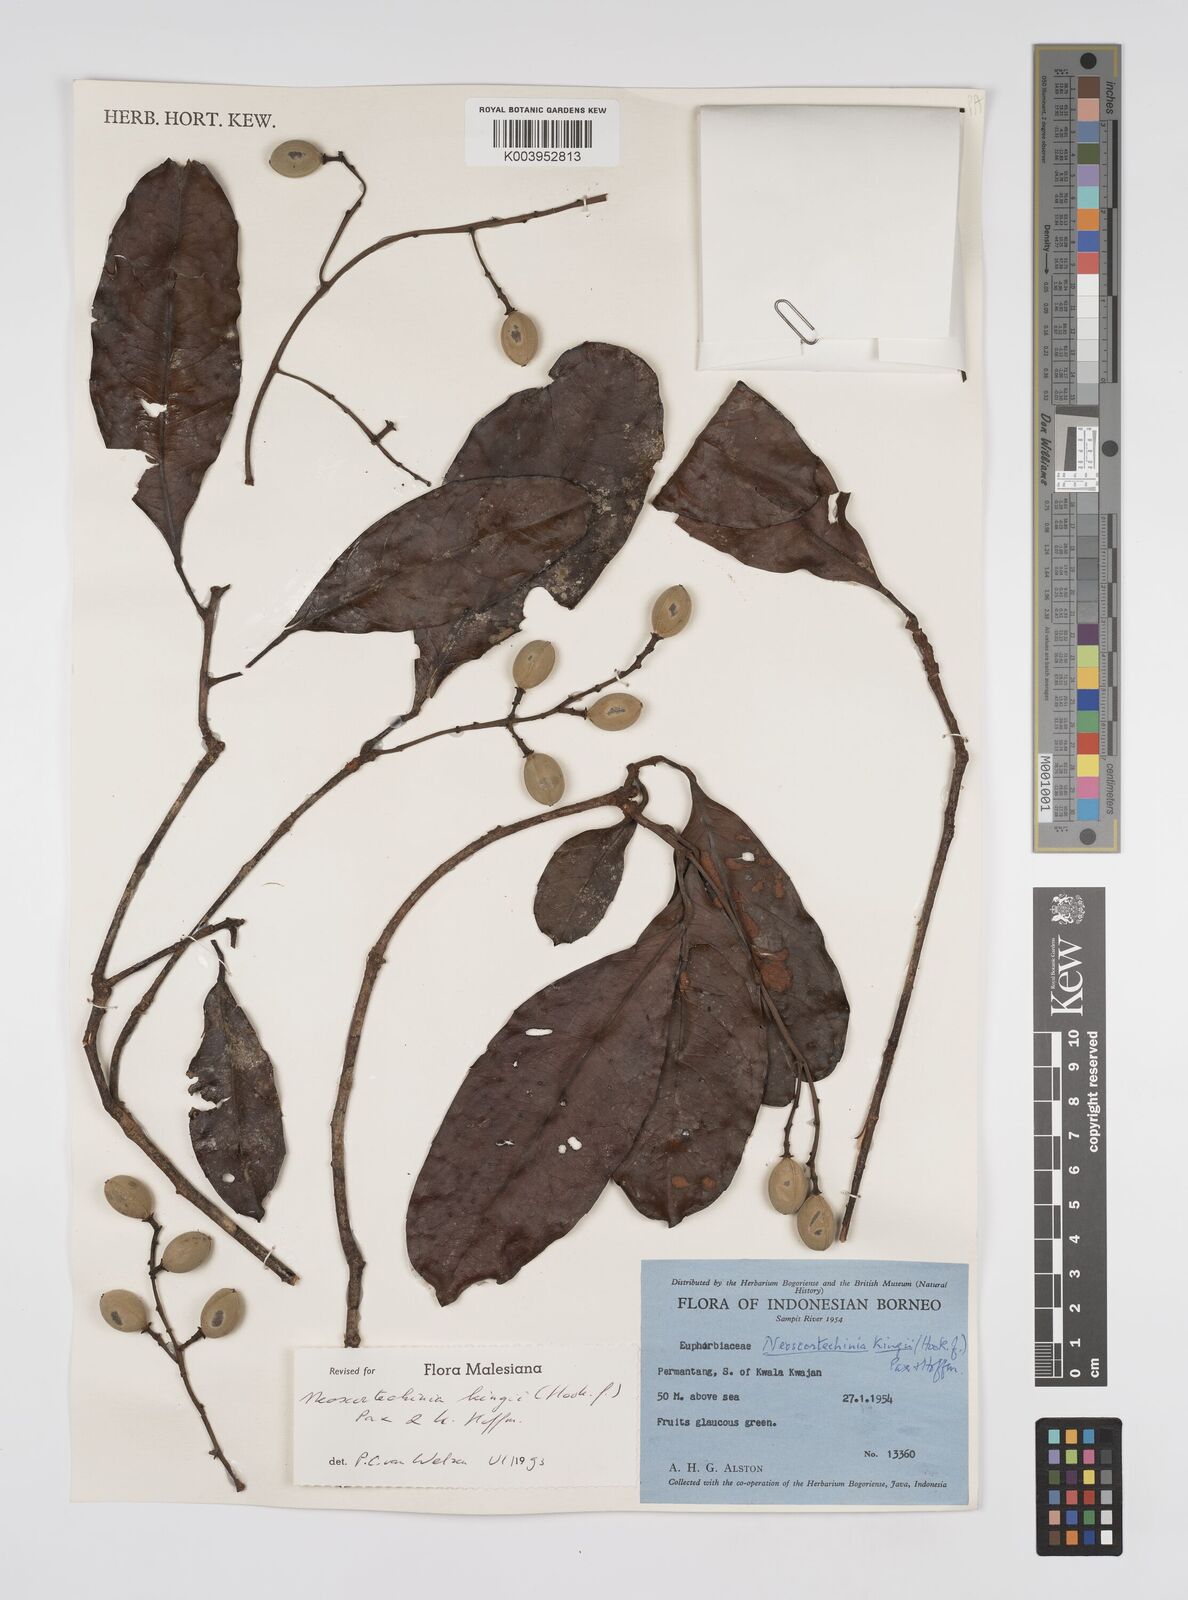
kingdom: Plantae
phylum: Tracheophyta
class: Magnoliopsida
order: Malpighiales
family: Euphorbiaceae
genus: Neoscortechinia
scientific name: Neoscortechinia kingii
